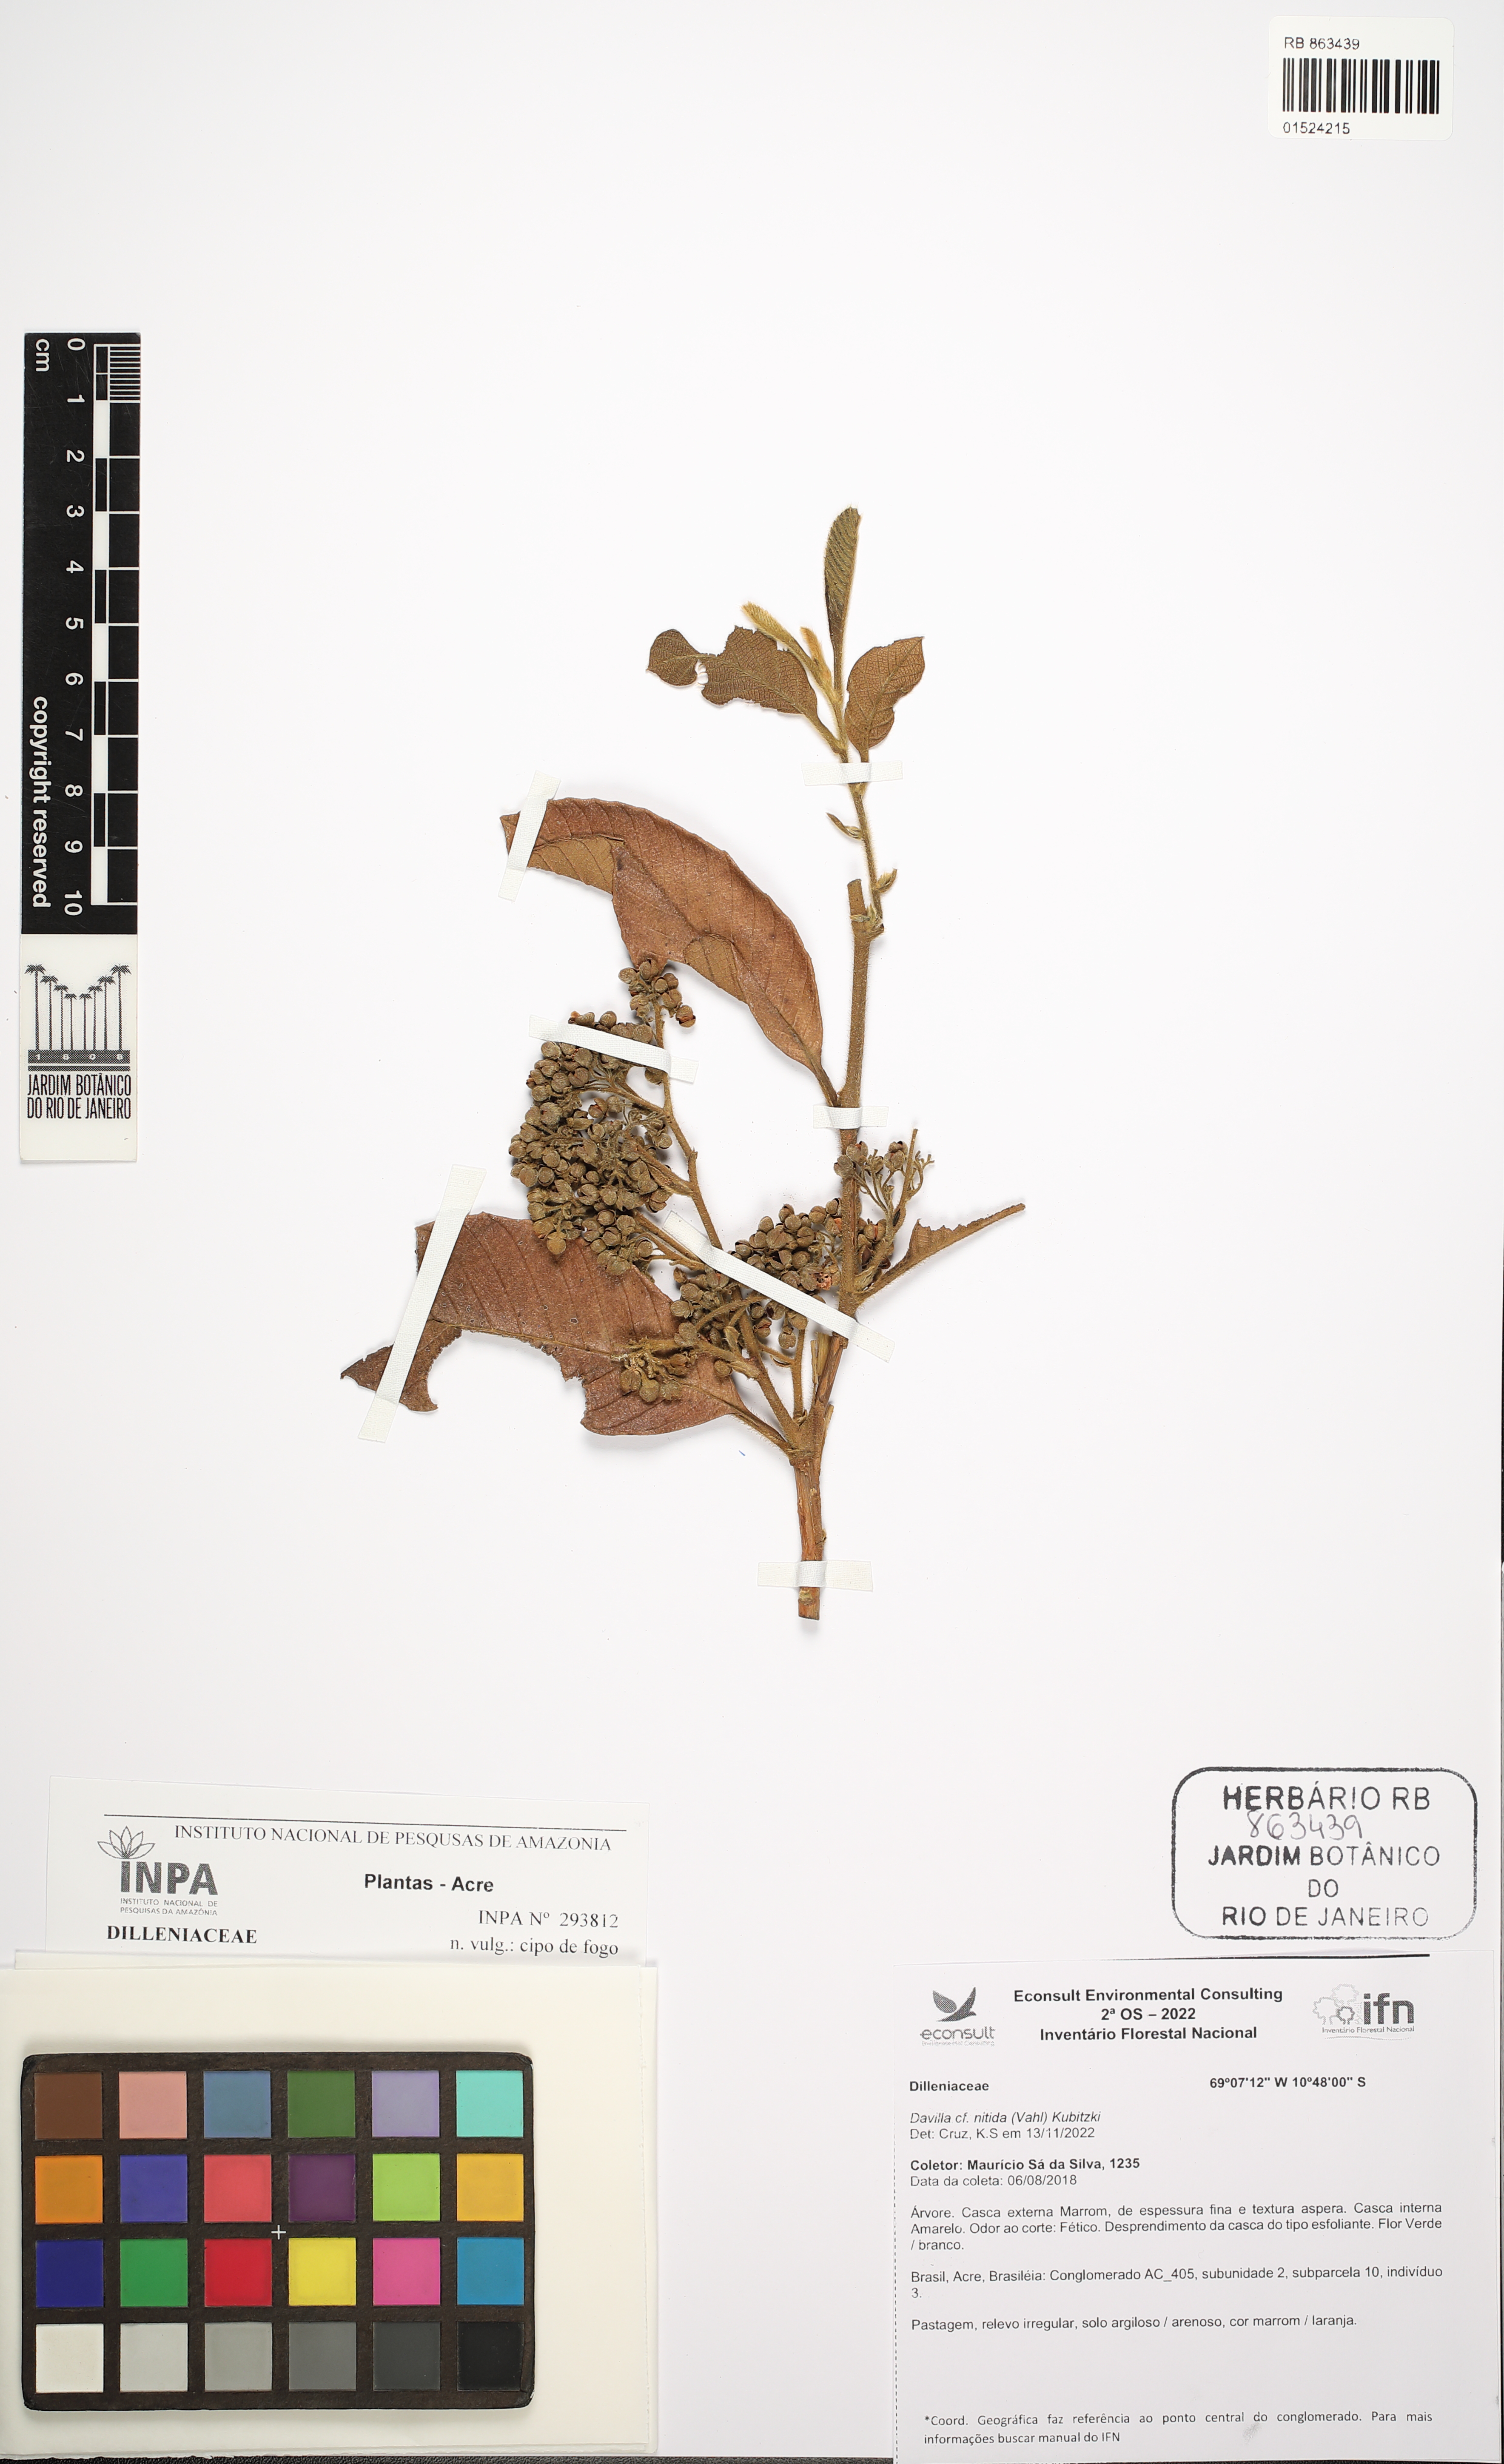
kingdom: Plantae
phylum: Tracheophyta
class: Magnoliopsida
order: Dilleniales
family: Dilleniaceae
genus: Davilla
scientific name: Davilla nitida
